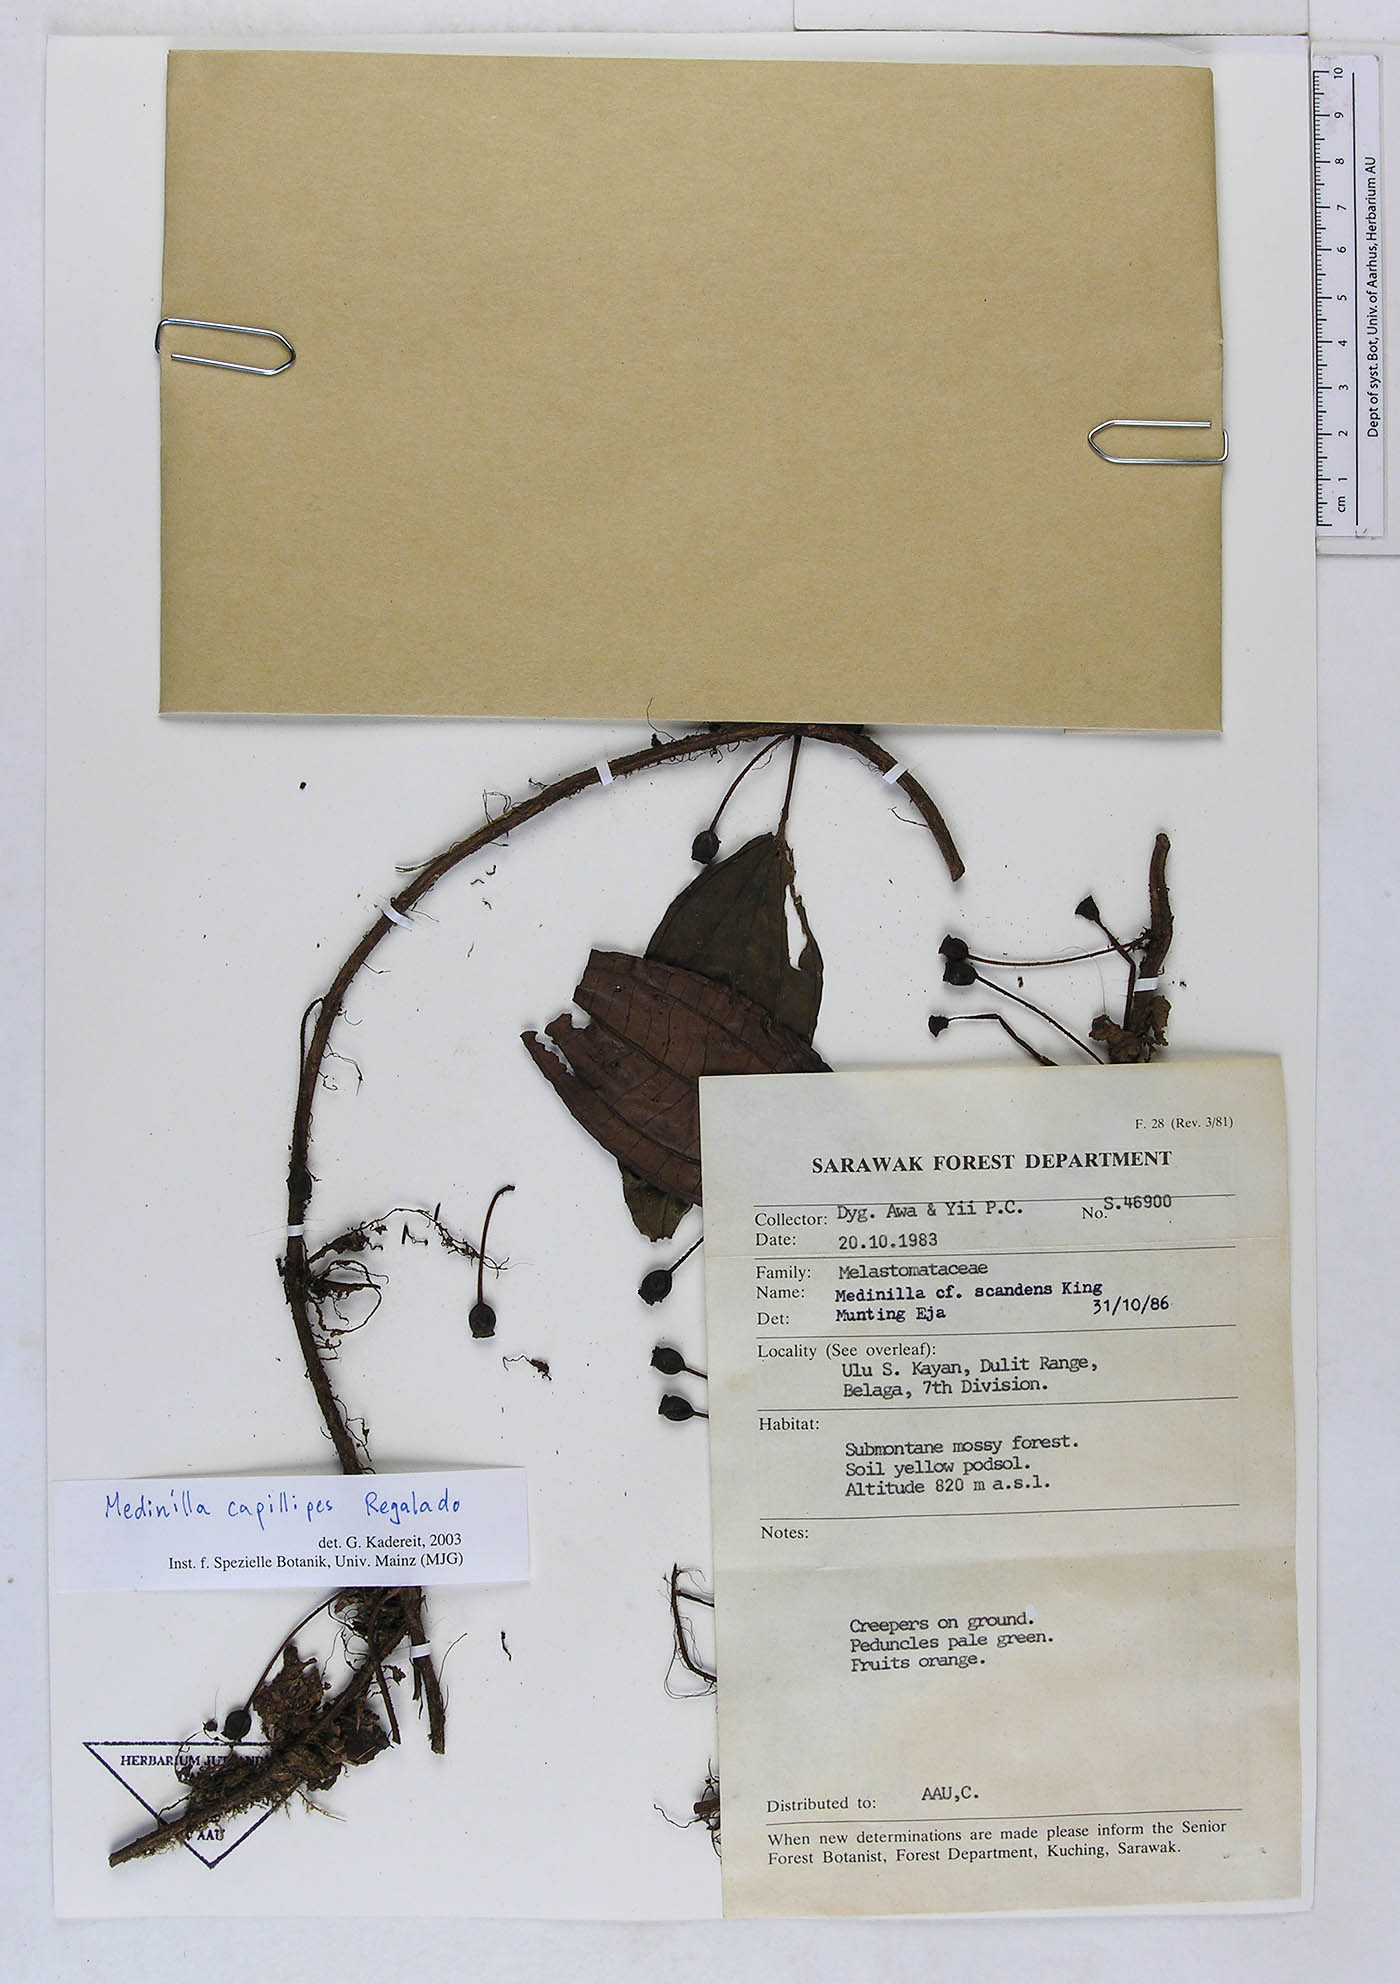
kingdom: Plantae
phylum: Tracheophyta
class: Magnoliopsida
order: Myrtales
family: Melastomataceae
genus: Heteroblemma
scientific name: Heteroblemma capillipes
